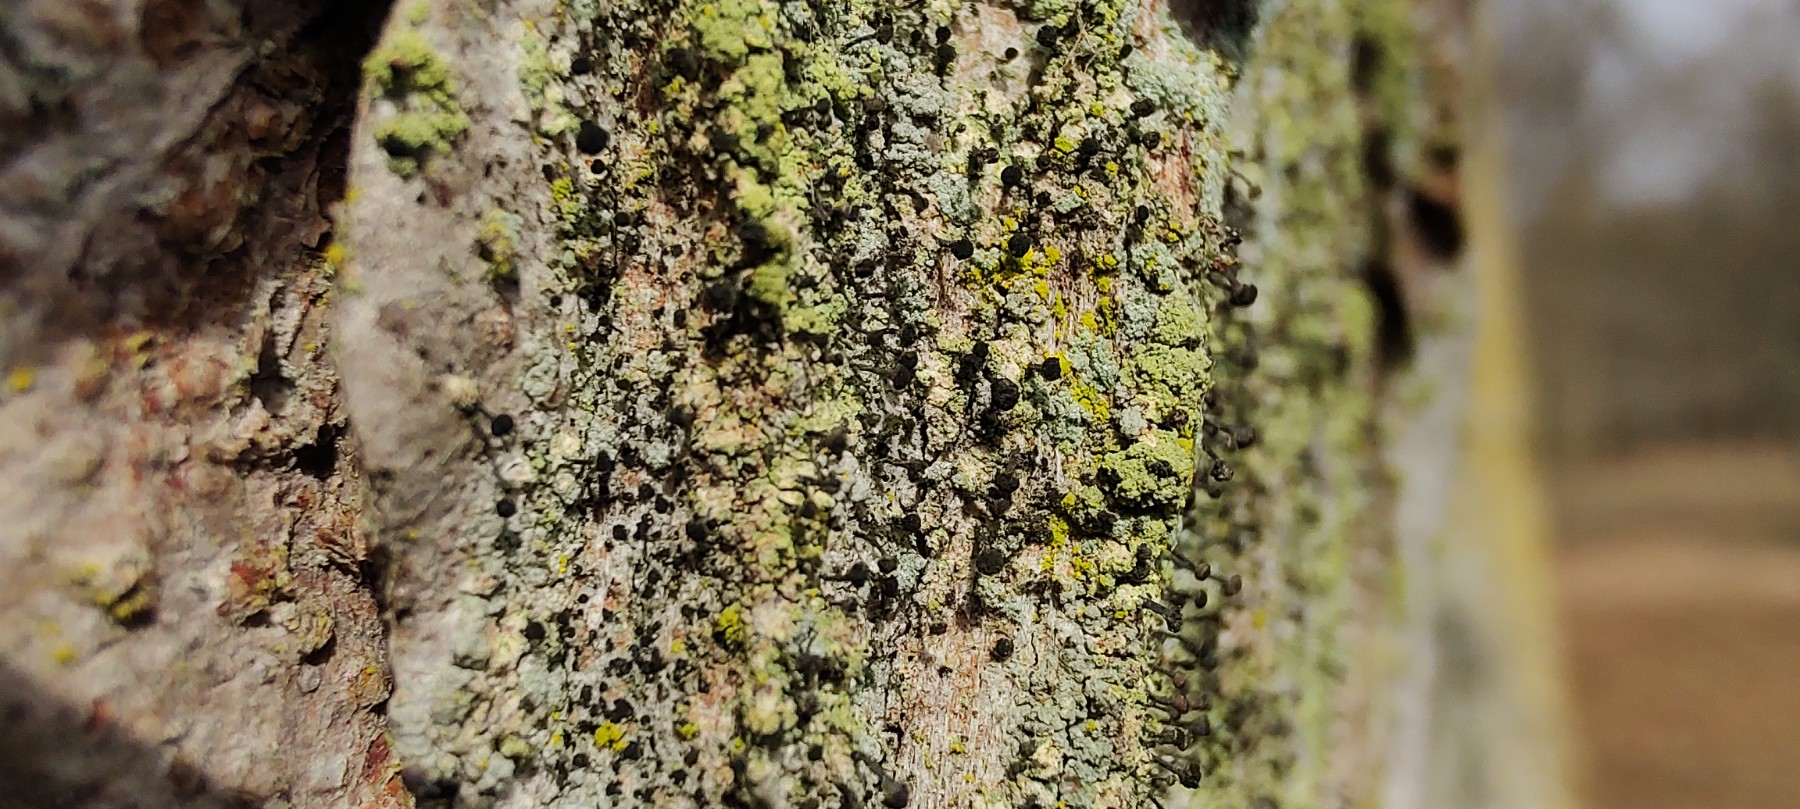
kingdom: Fungi
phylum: Ascomycota
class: Lecanoromycetes
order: Caliciales
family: Caliciaceae
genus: Calicium
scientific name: Calicium viride
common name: gulgrøn nålelav
